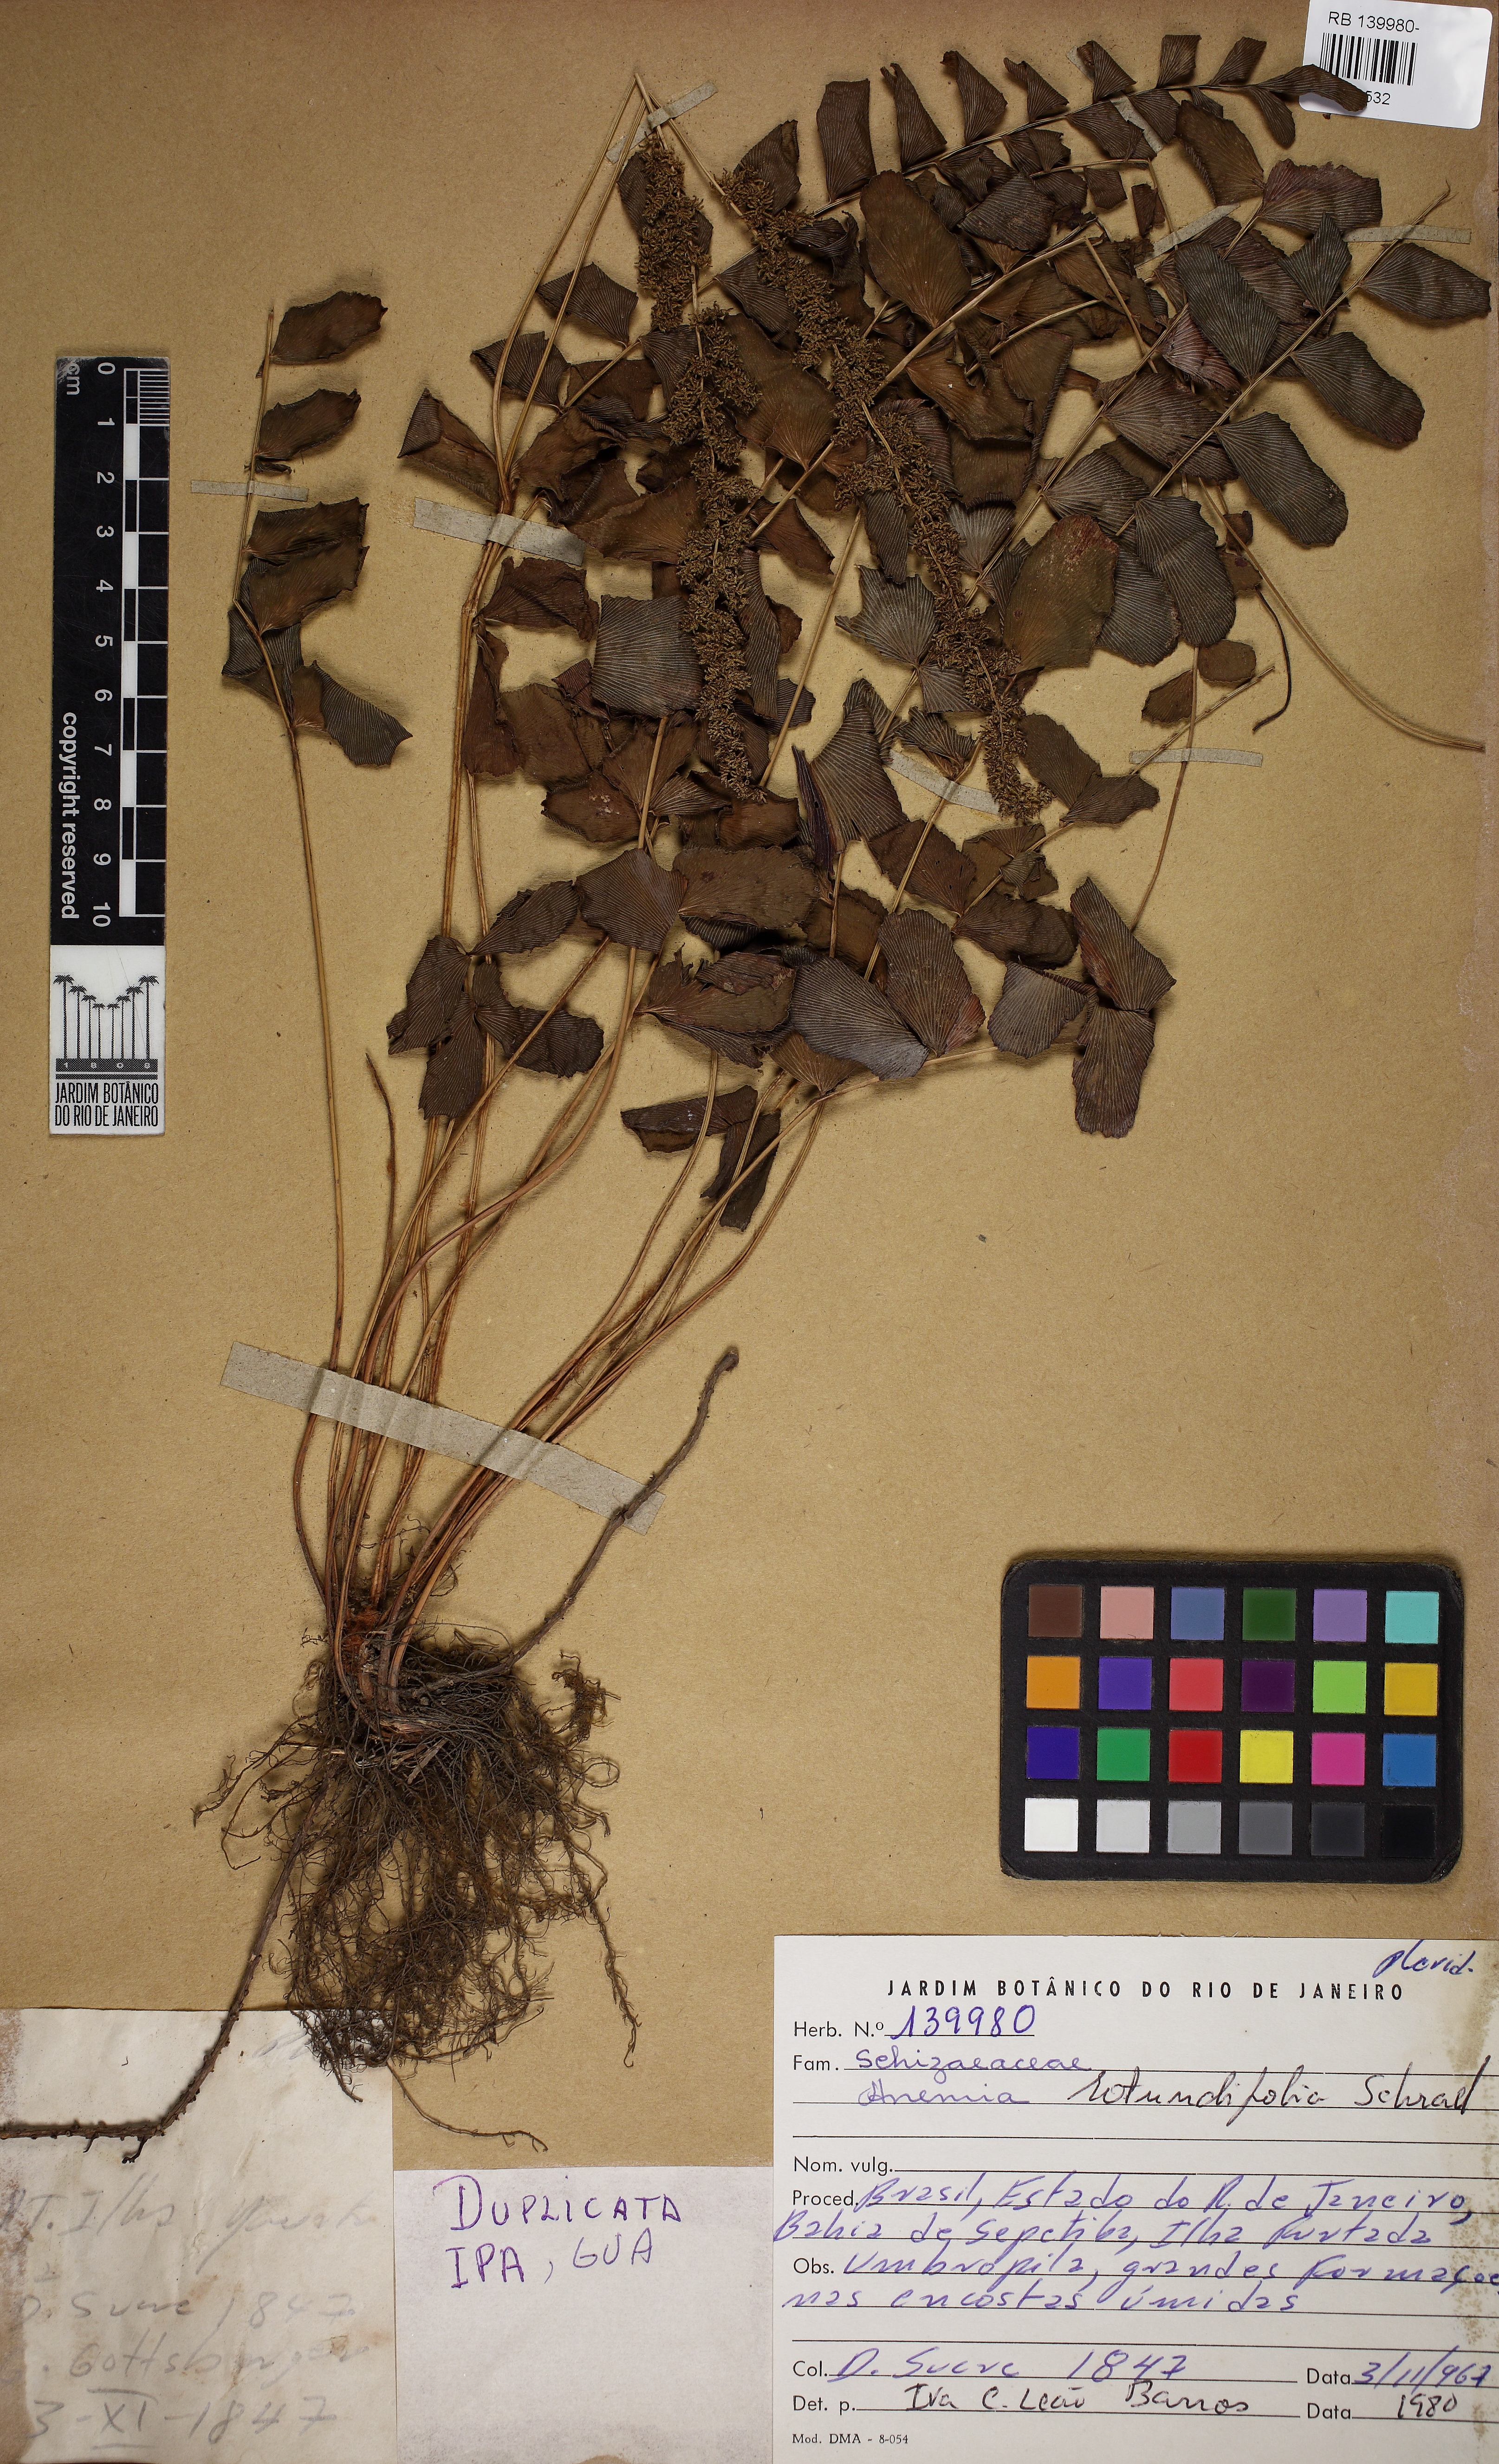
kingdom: Plantae
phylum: Tracheophyta
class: Polypodiopsida
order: Schizaeales
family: Anemiaceae
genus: Anemia
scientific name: Anemia rotundifolia
